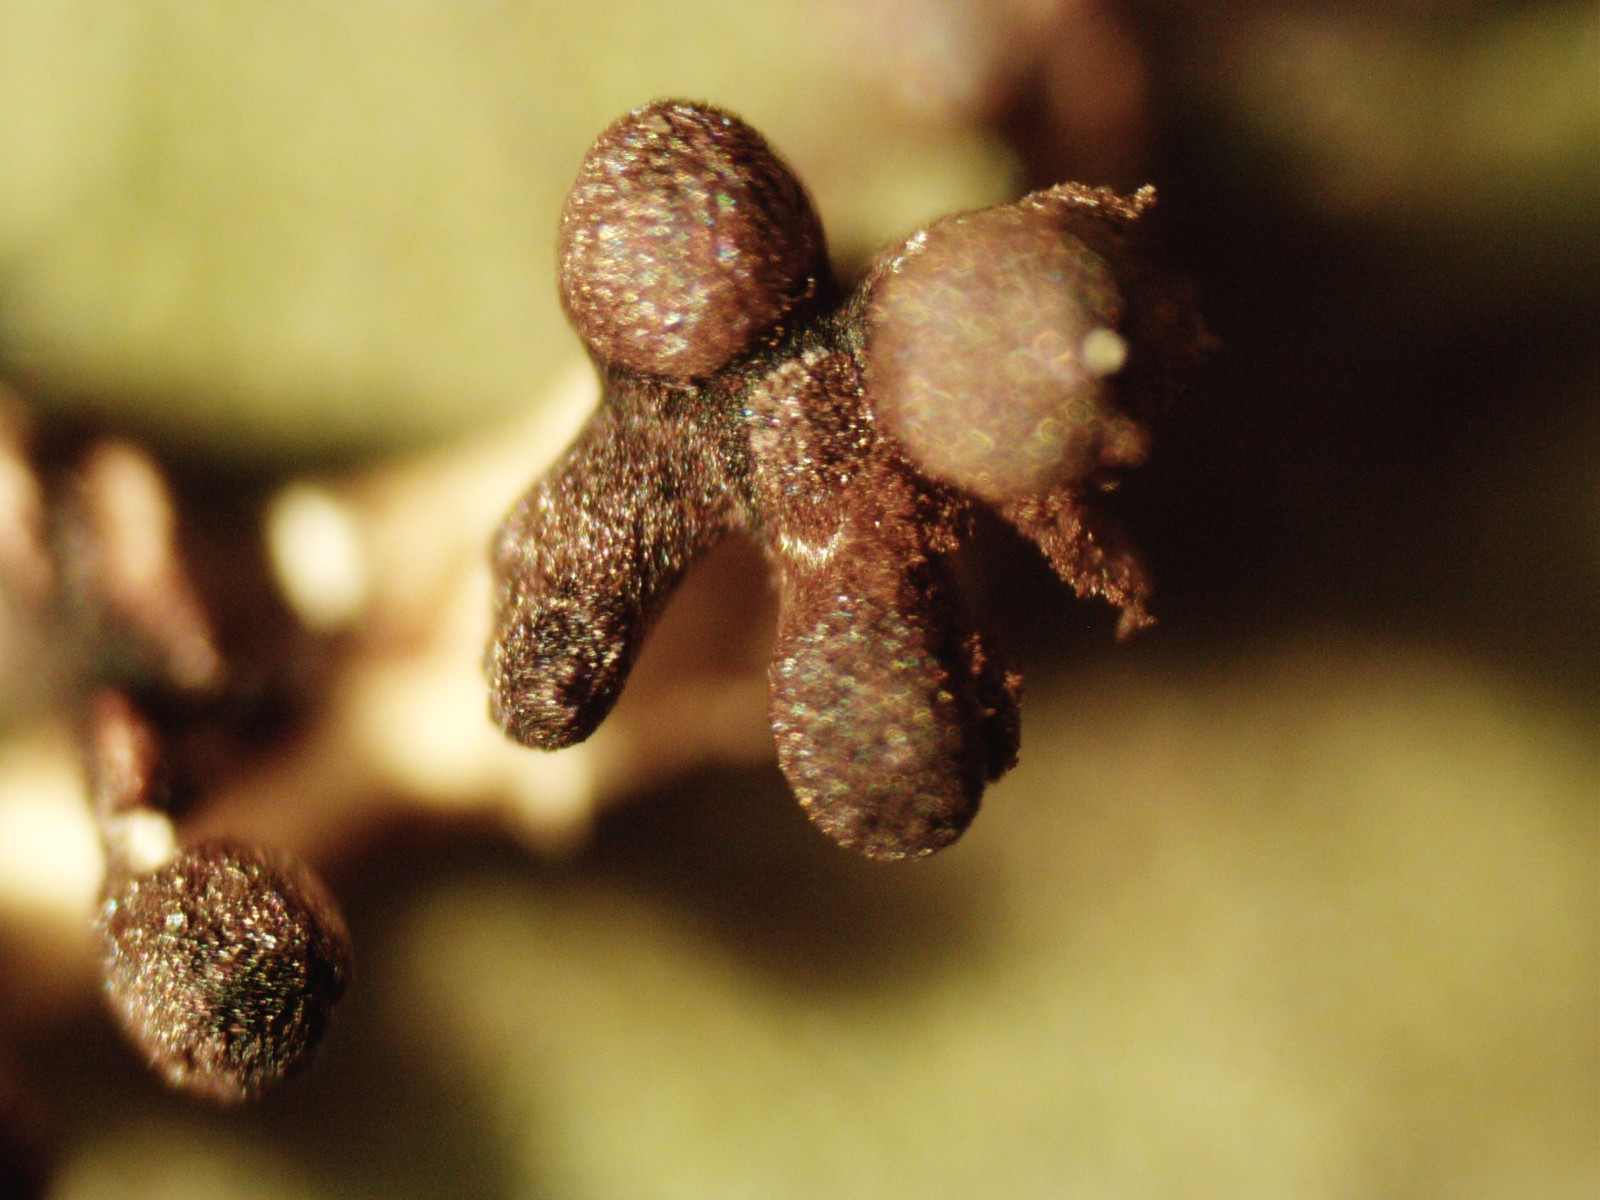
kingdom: Protozoa
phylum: Mycetozoa
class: Myxomycetes
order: Physarales
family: Didymiaceae
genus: Diachea
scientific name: Diachea leucopodia
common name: hvidstokket metalknop
